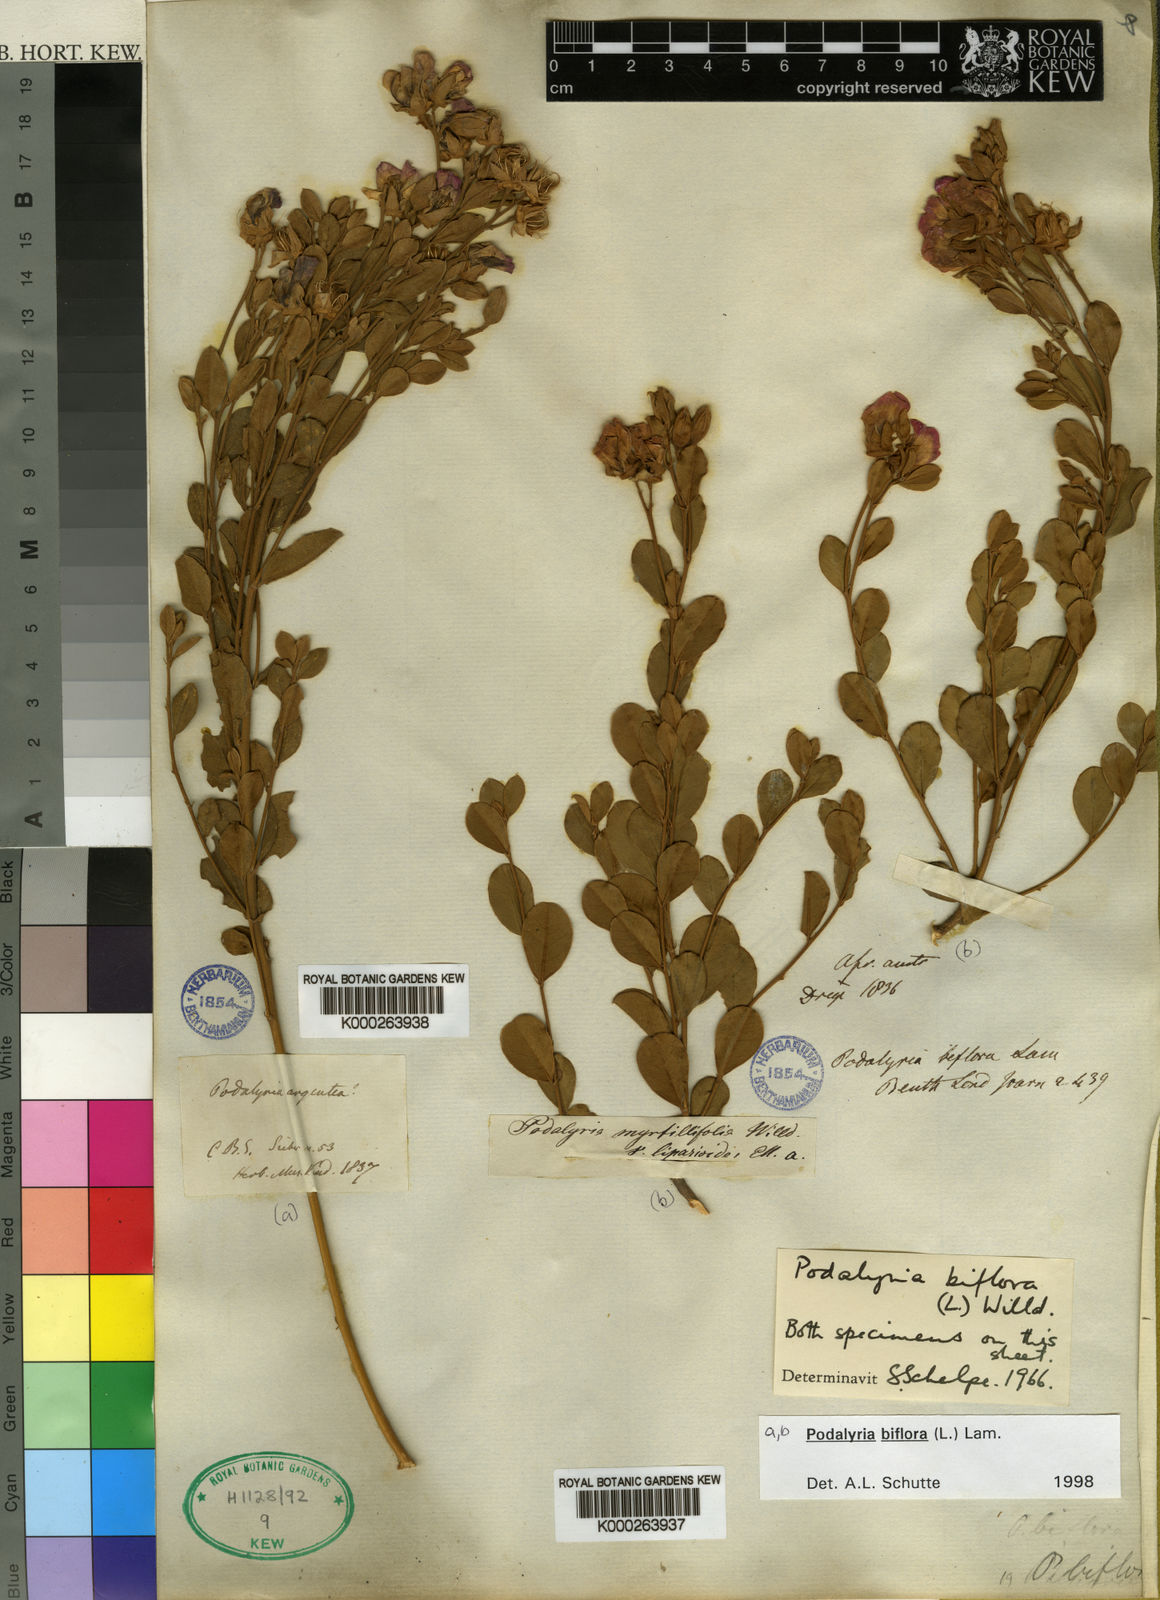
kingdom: Plantae
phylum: Tracheophyta
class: Magnoliopsida
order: Fabales
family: Fabaceae
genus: Podalyria
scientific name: Podalyria biflora
